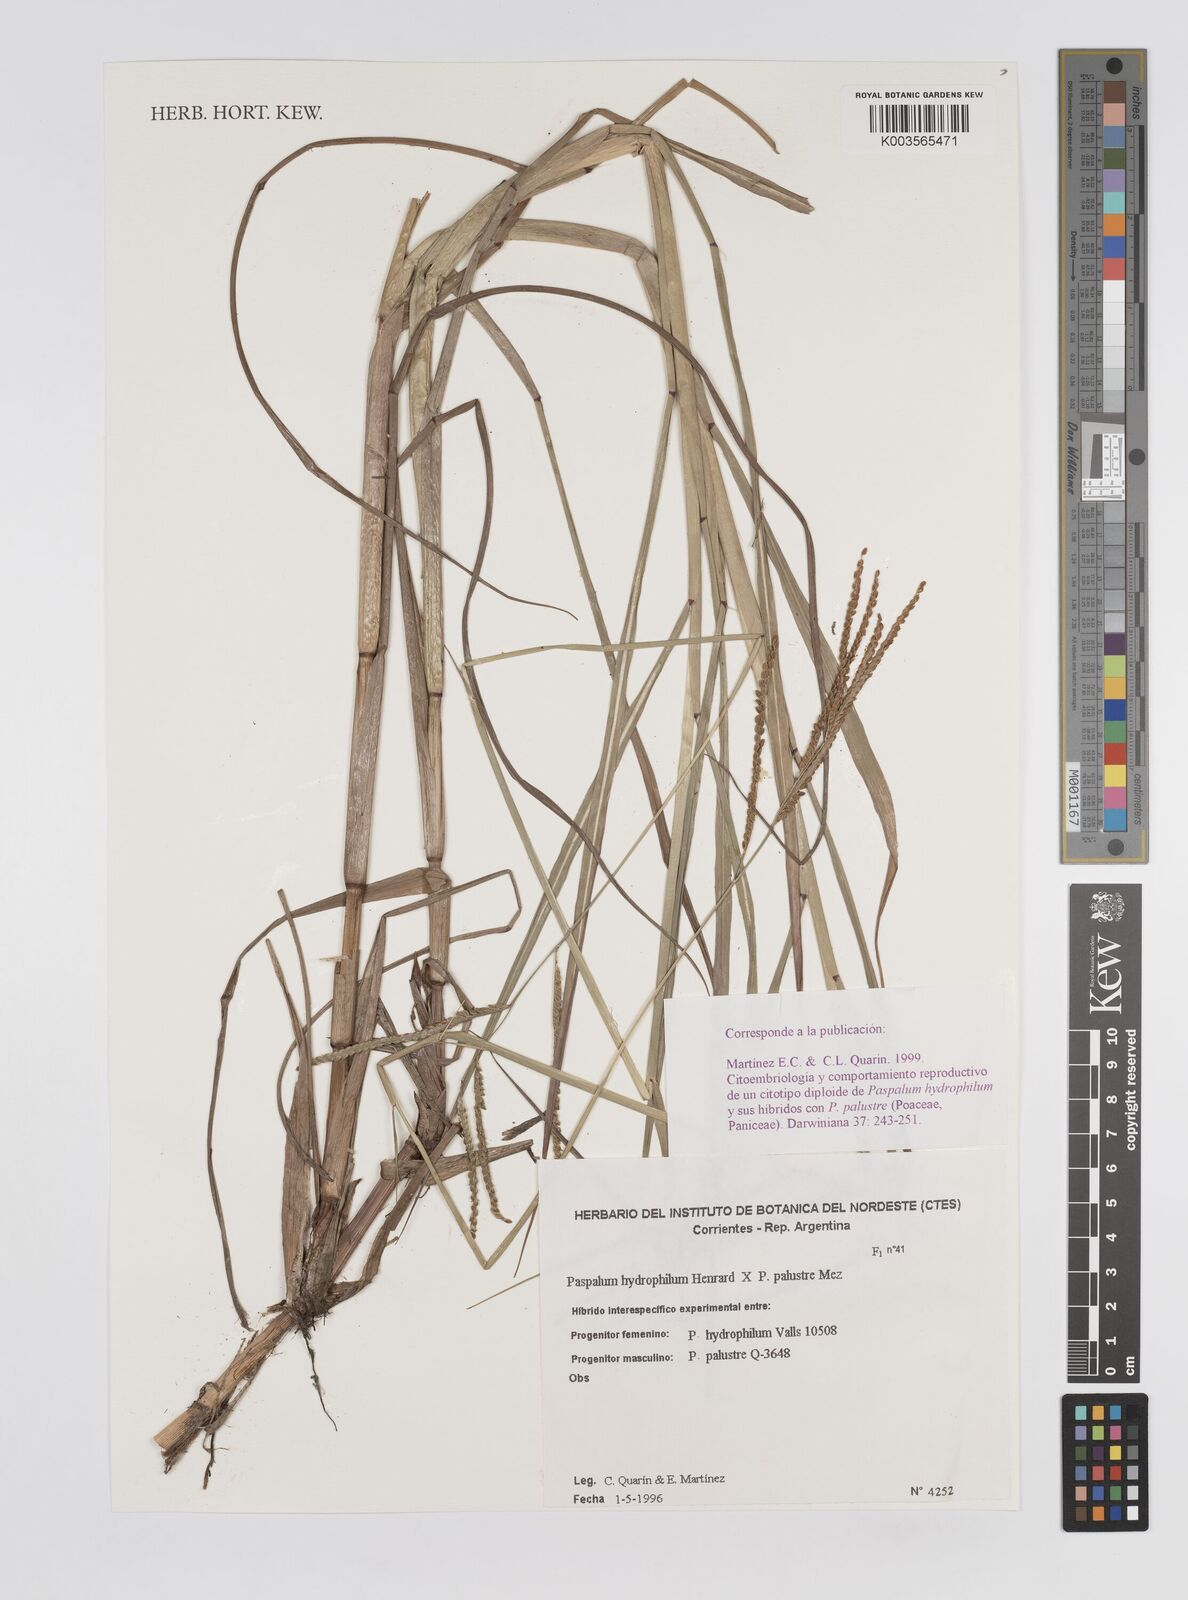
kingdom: Plantae
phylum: Tracheophyta
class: Liliopsida
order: Poales
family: Poaceae
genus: Paspalum
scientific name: Paspalum wrightii
